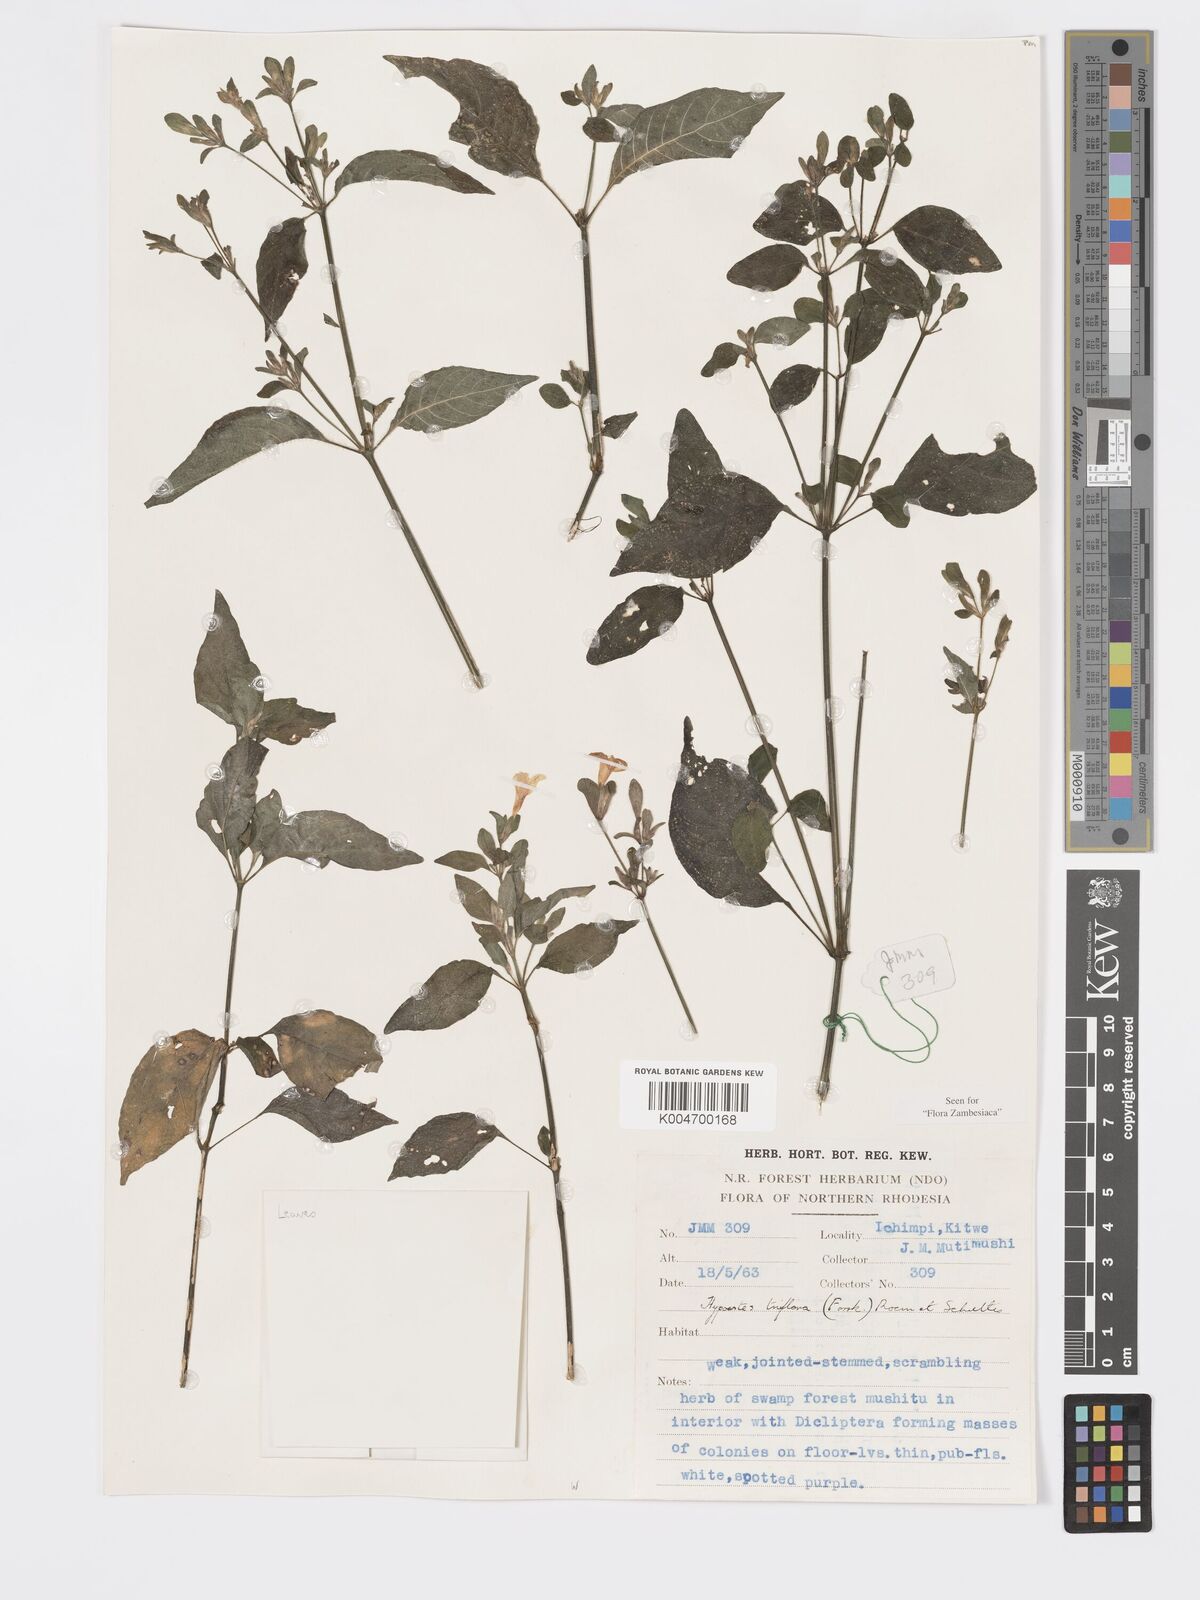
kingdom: Plantae
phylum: Tracheophyta
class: Magnoliopsida
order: Lamiales
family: Acanthaceae
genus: Hypoestes
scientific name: Hypoestes triflora
